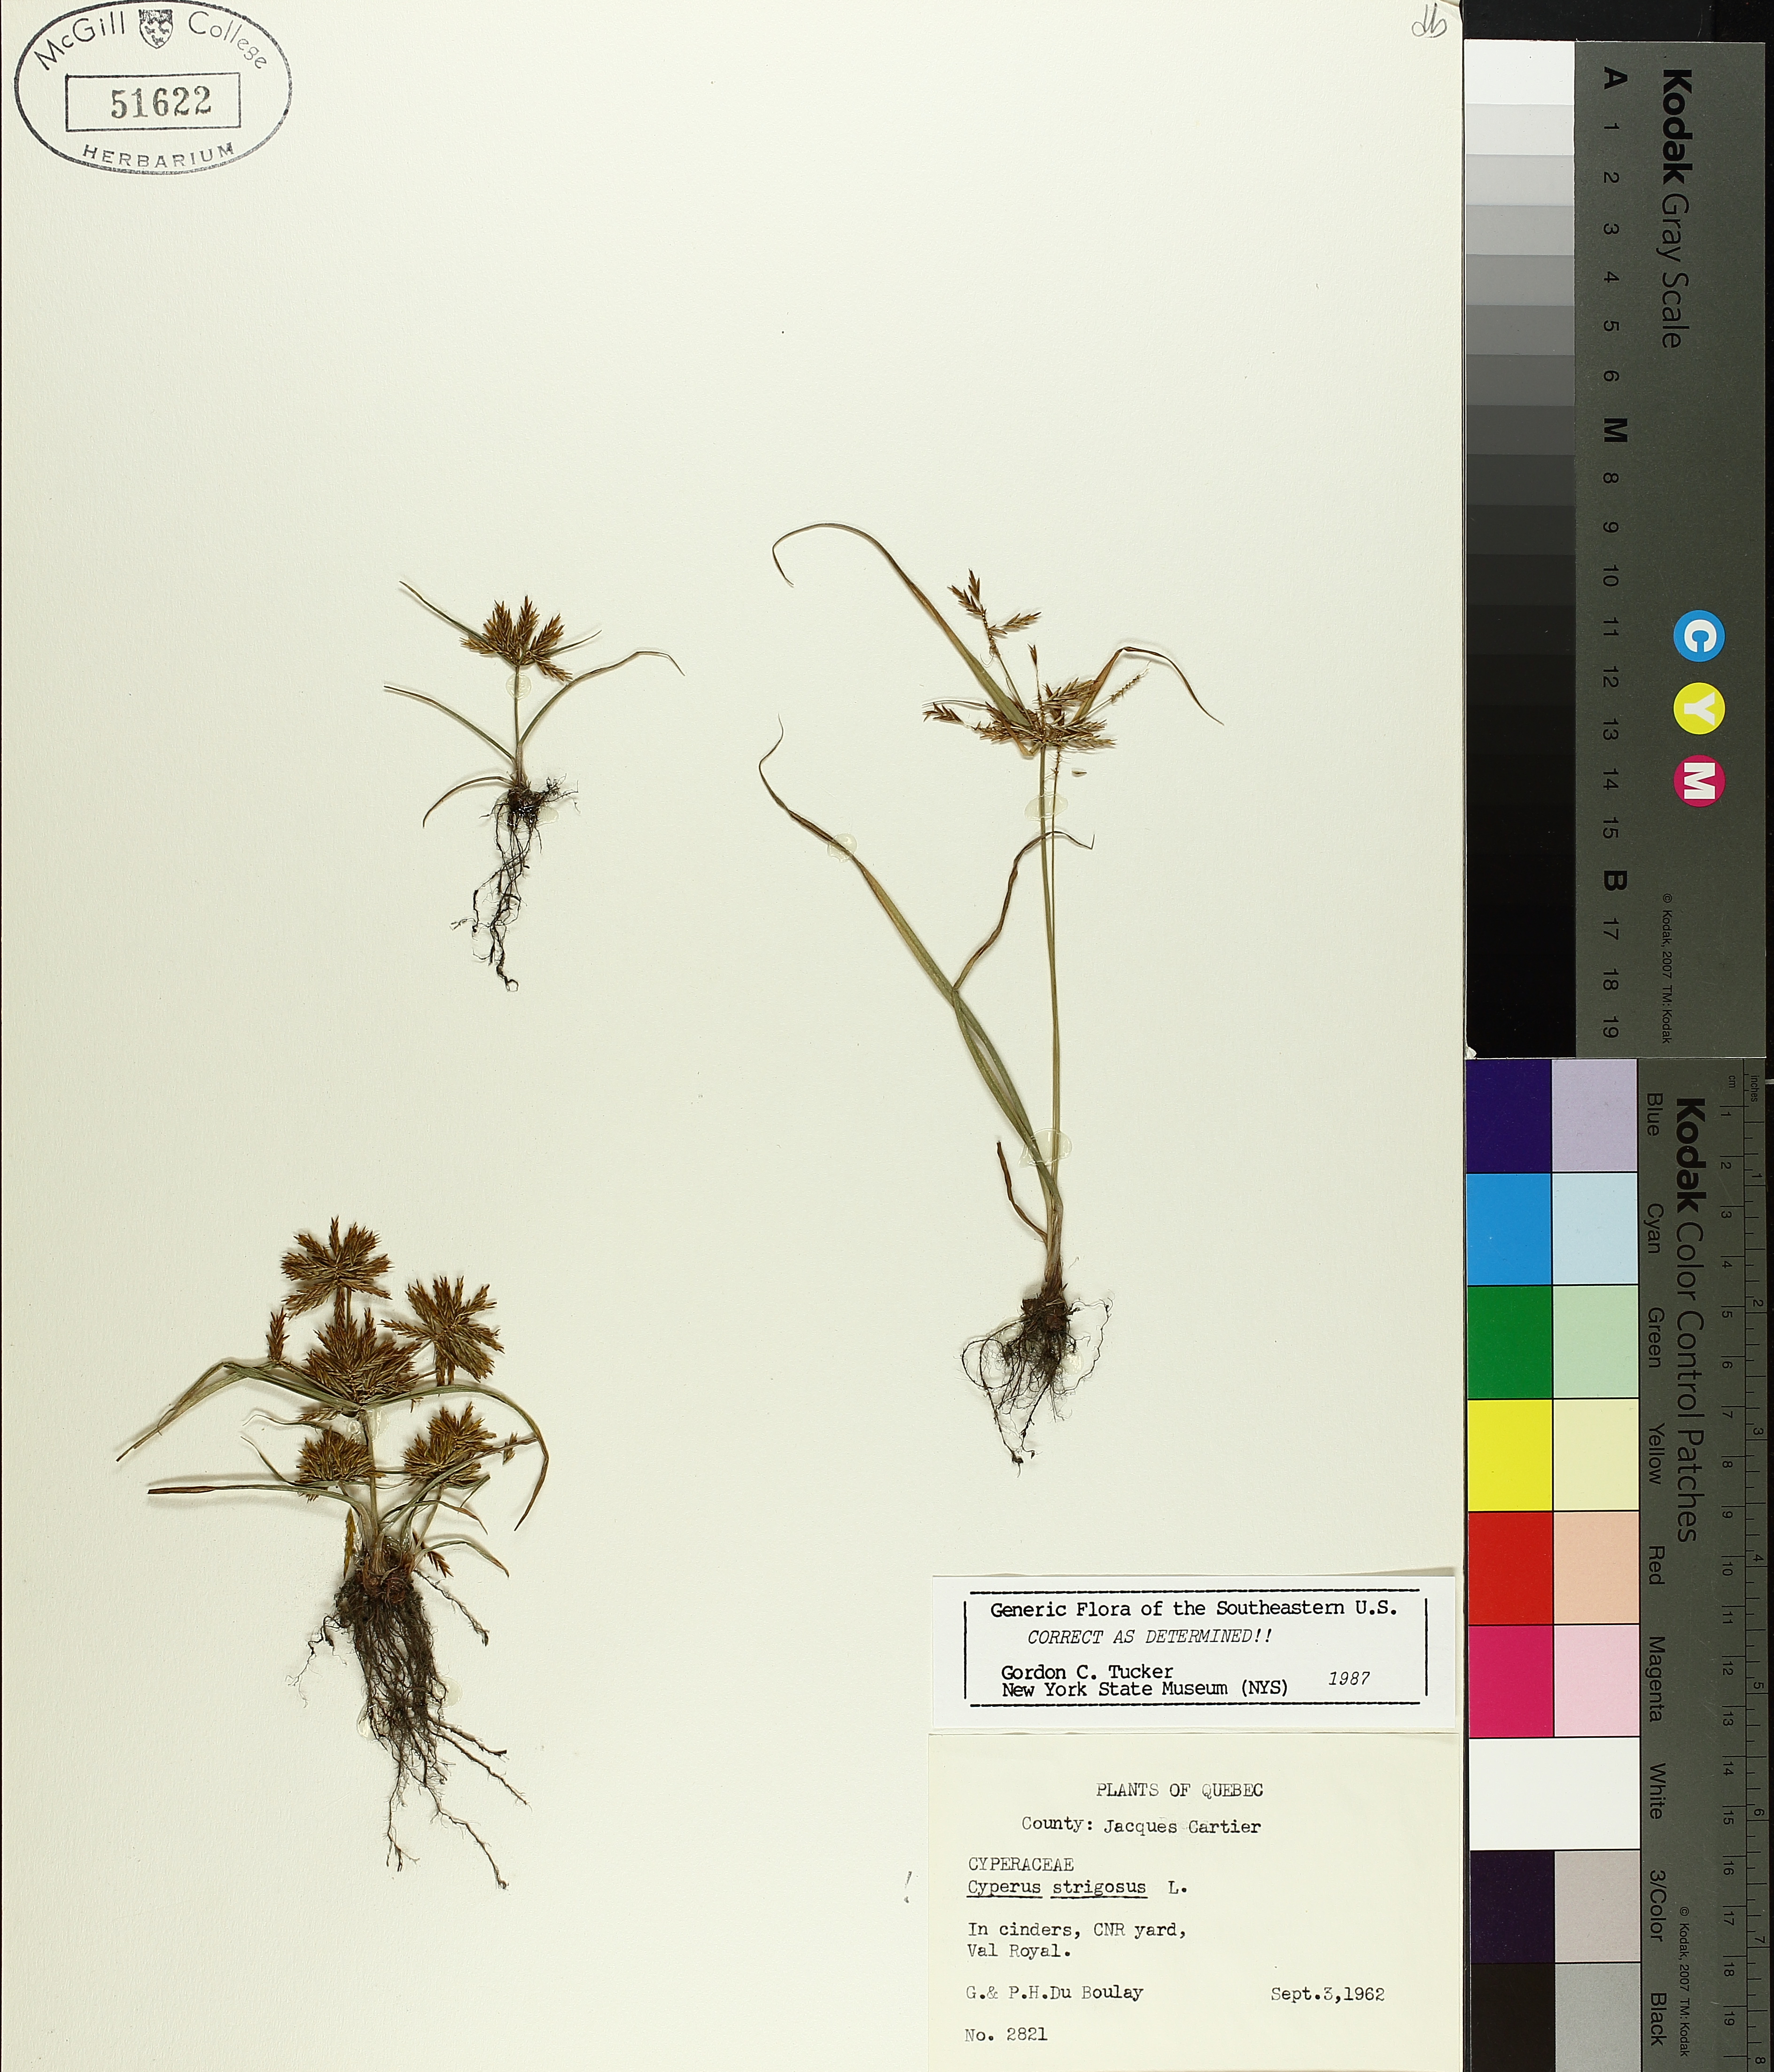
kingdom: Plantae
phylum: Tracheophyta
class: Liliopsida
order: Poales
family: Cyperaceae
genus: Cyperus
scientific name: Cyperus strigosus
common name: False nutsedge
